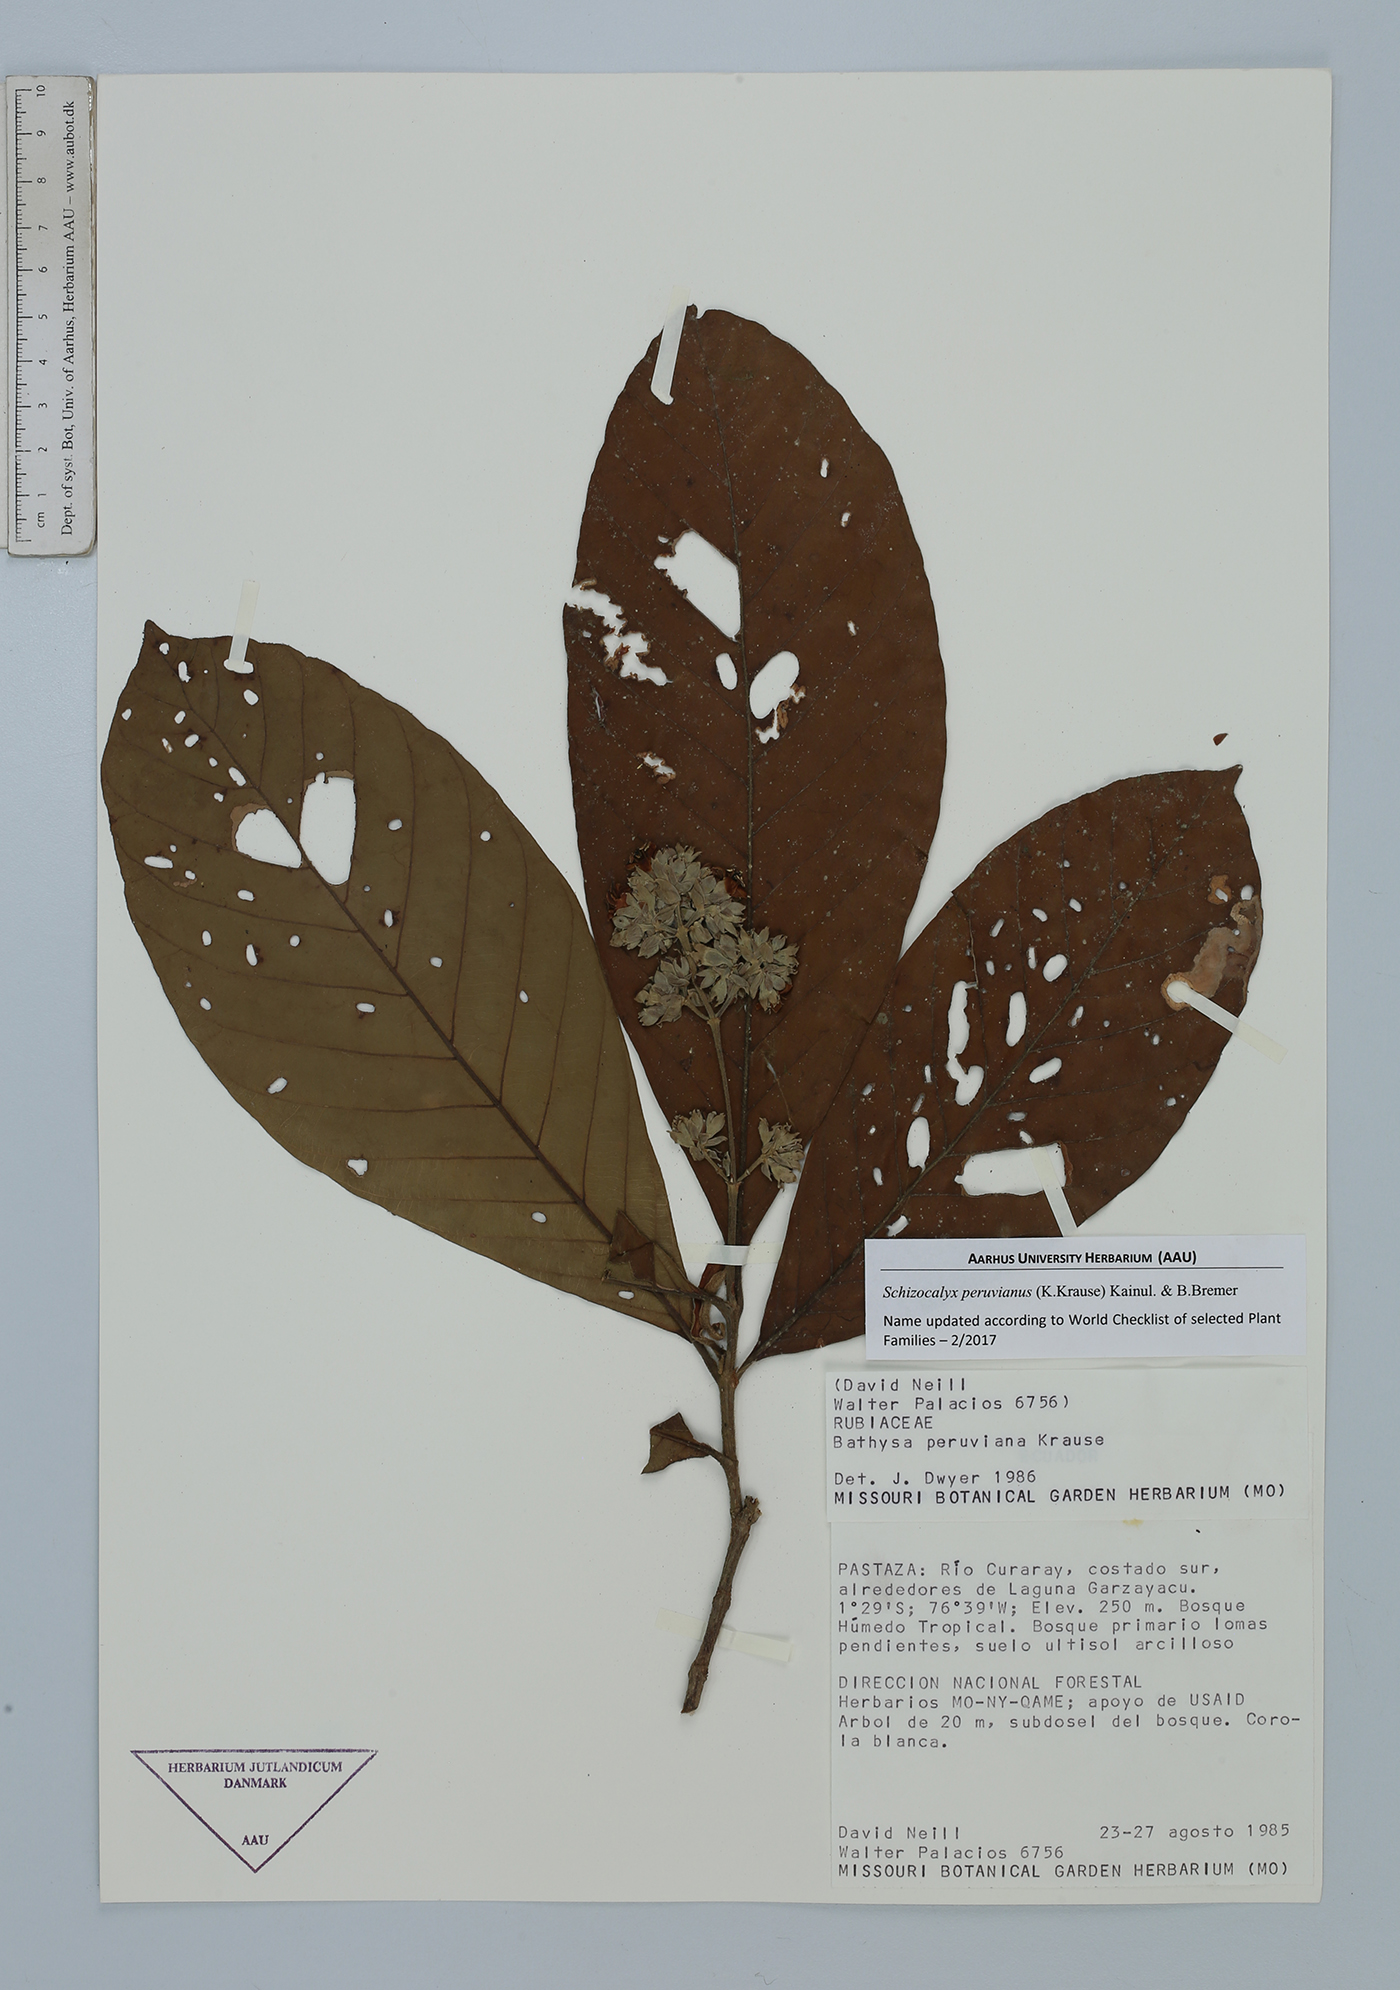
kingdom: Plantae
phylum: Tracheophyta
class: Magnoliopsida
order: Gentianales
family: Rubiaceae
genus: Schizocalyx
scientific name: Schizocalyx peruvianus
